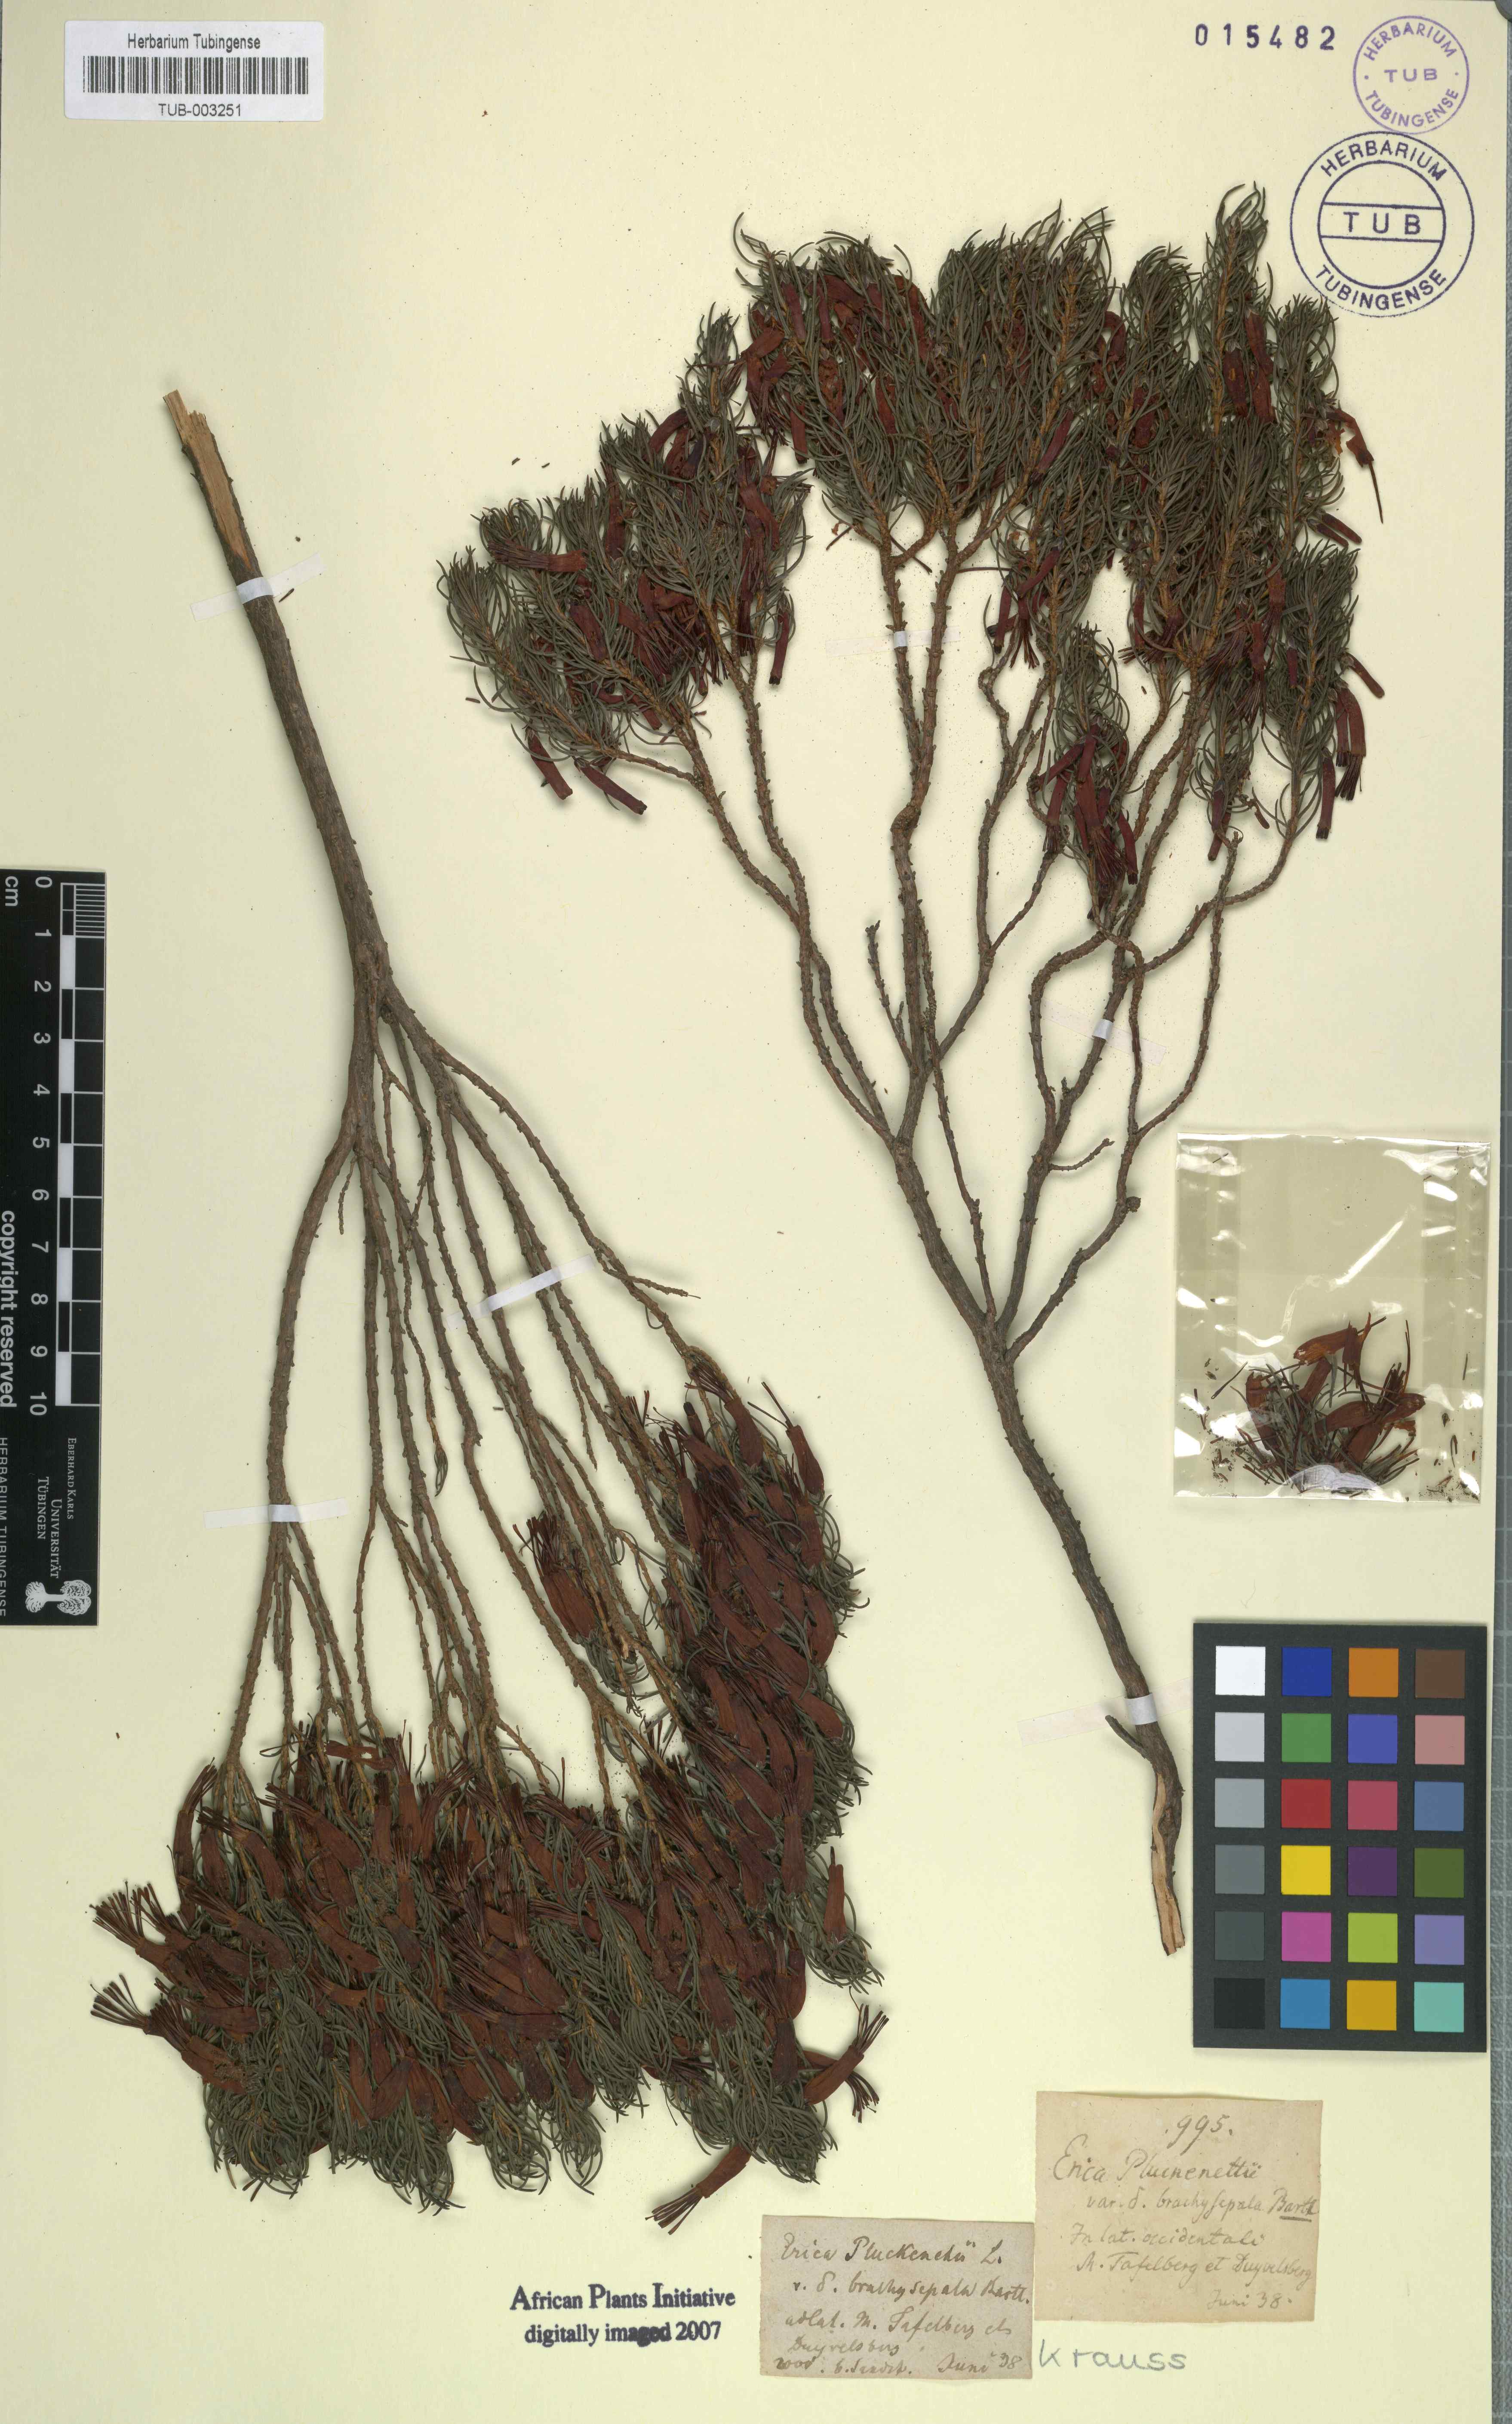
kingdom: Plantae
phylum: Tracheophyta
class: Magnoliopsida
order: Ericales
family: Ericaceae
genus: Erica
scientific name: Erica coccinea
